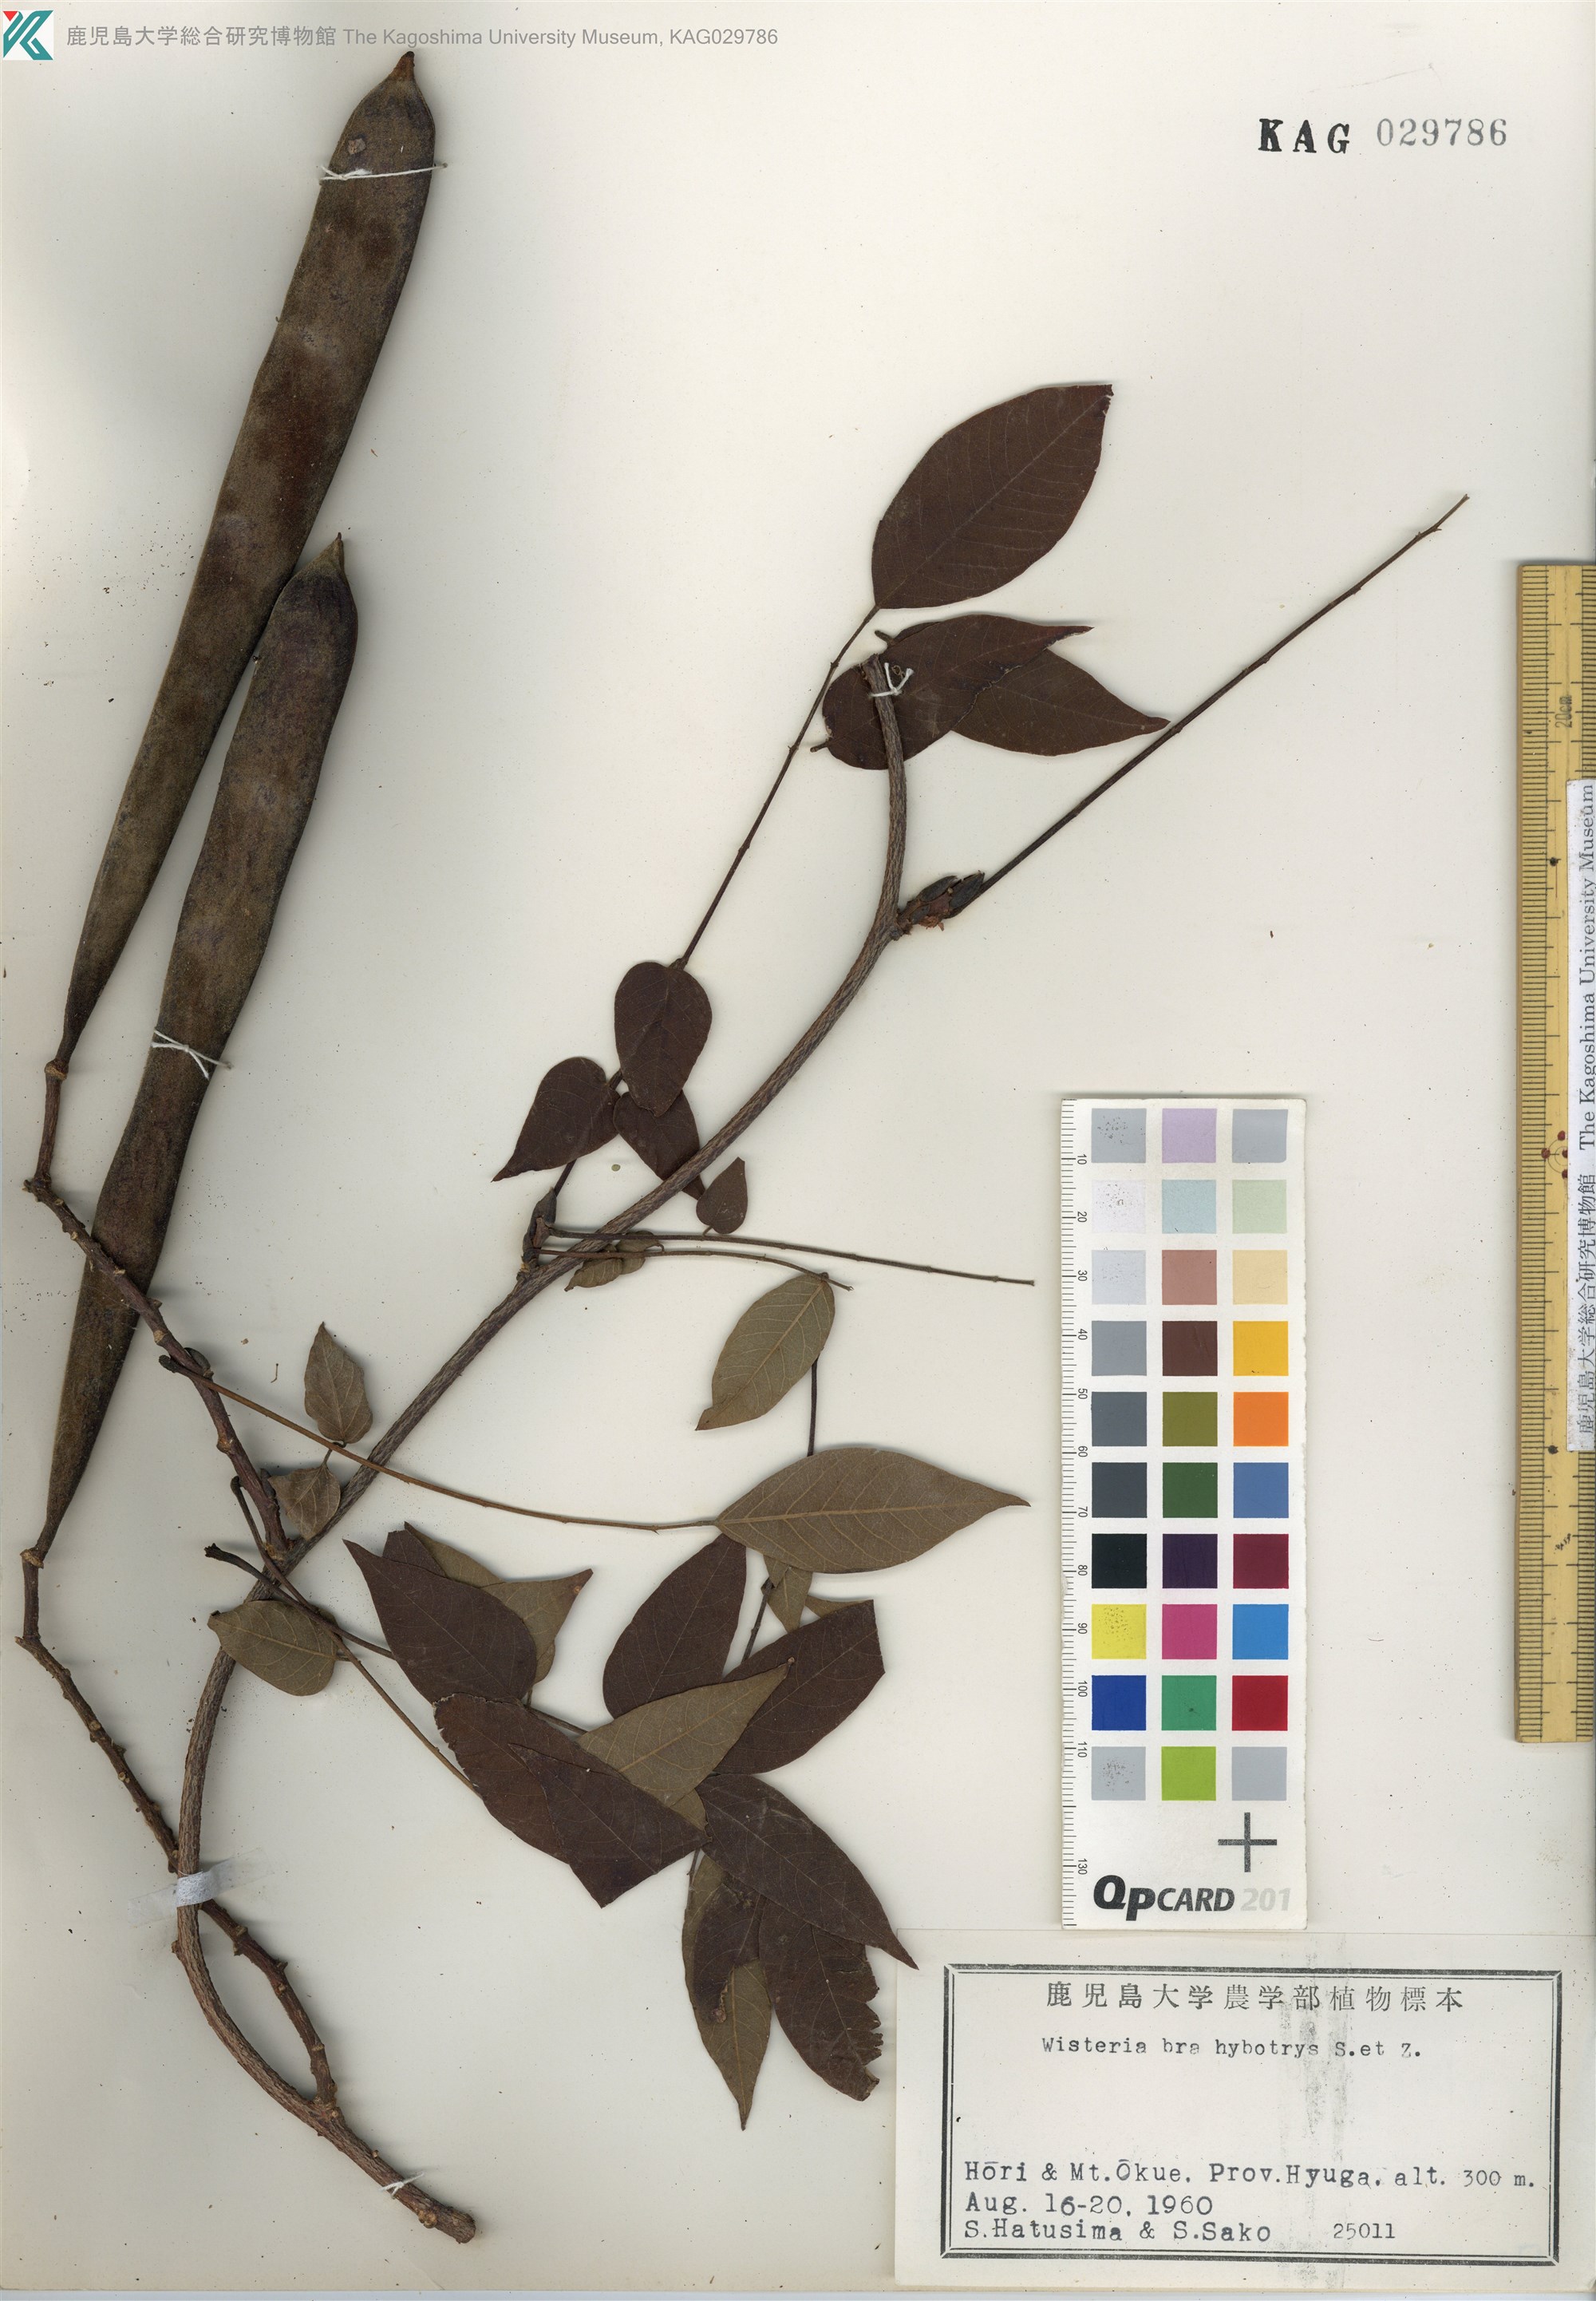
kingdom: Plantae
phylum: Tracheophyta
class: Magnoliopsida
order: Fabales
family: Fabaceae
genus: Wisteria
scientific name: Wisteria brachybotrys
